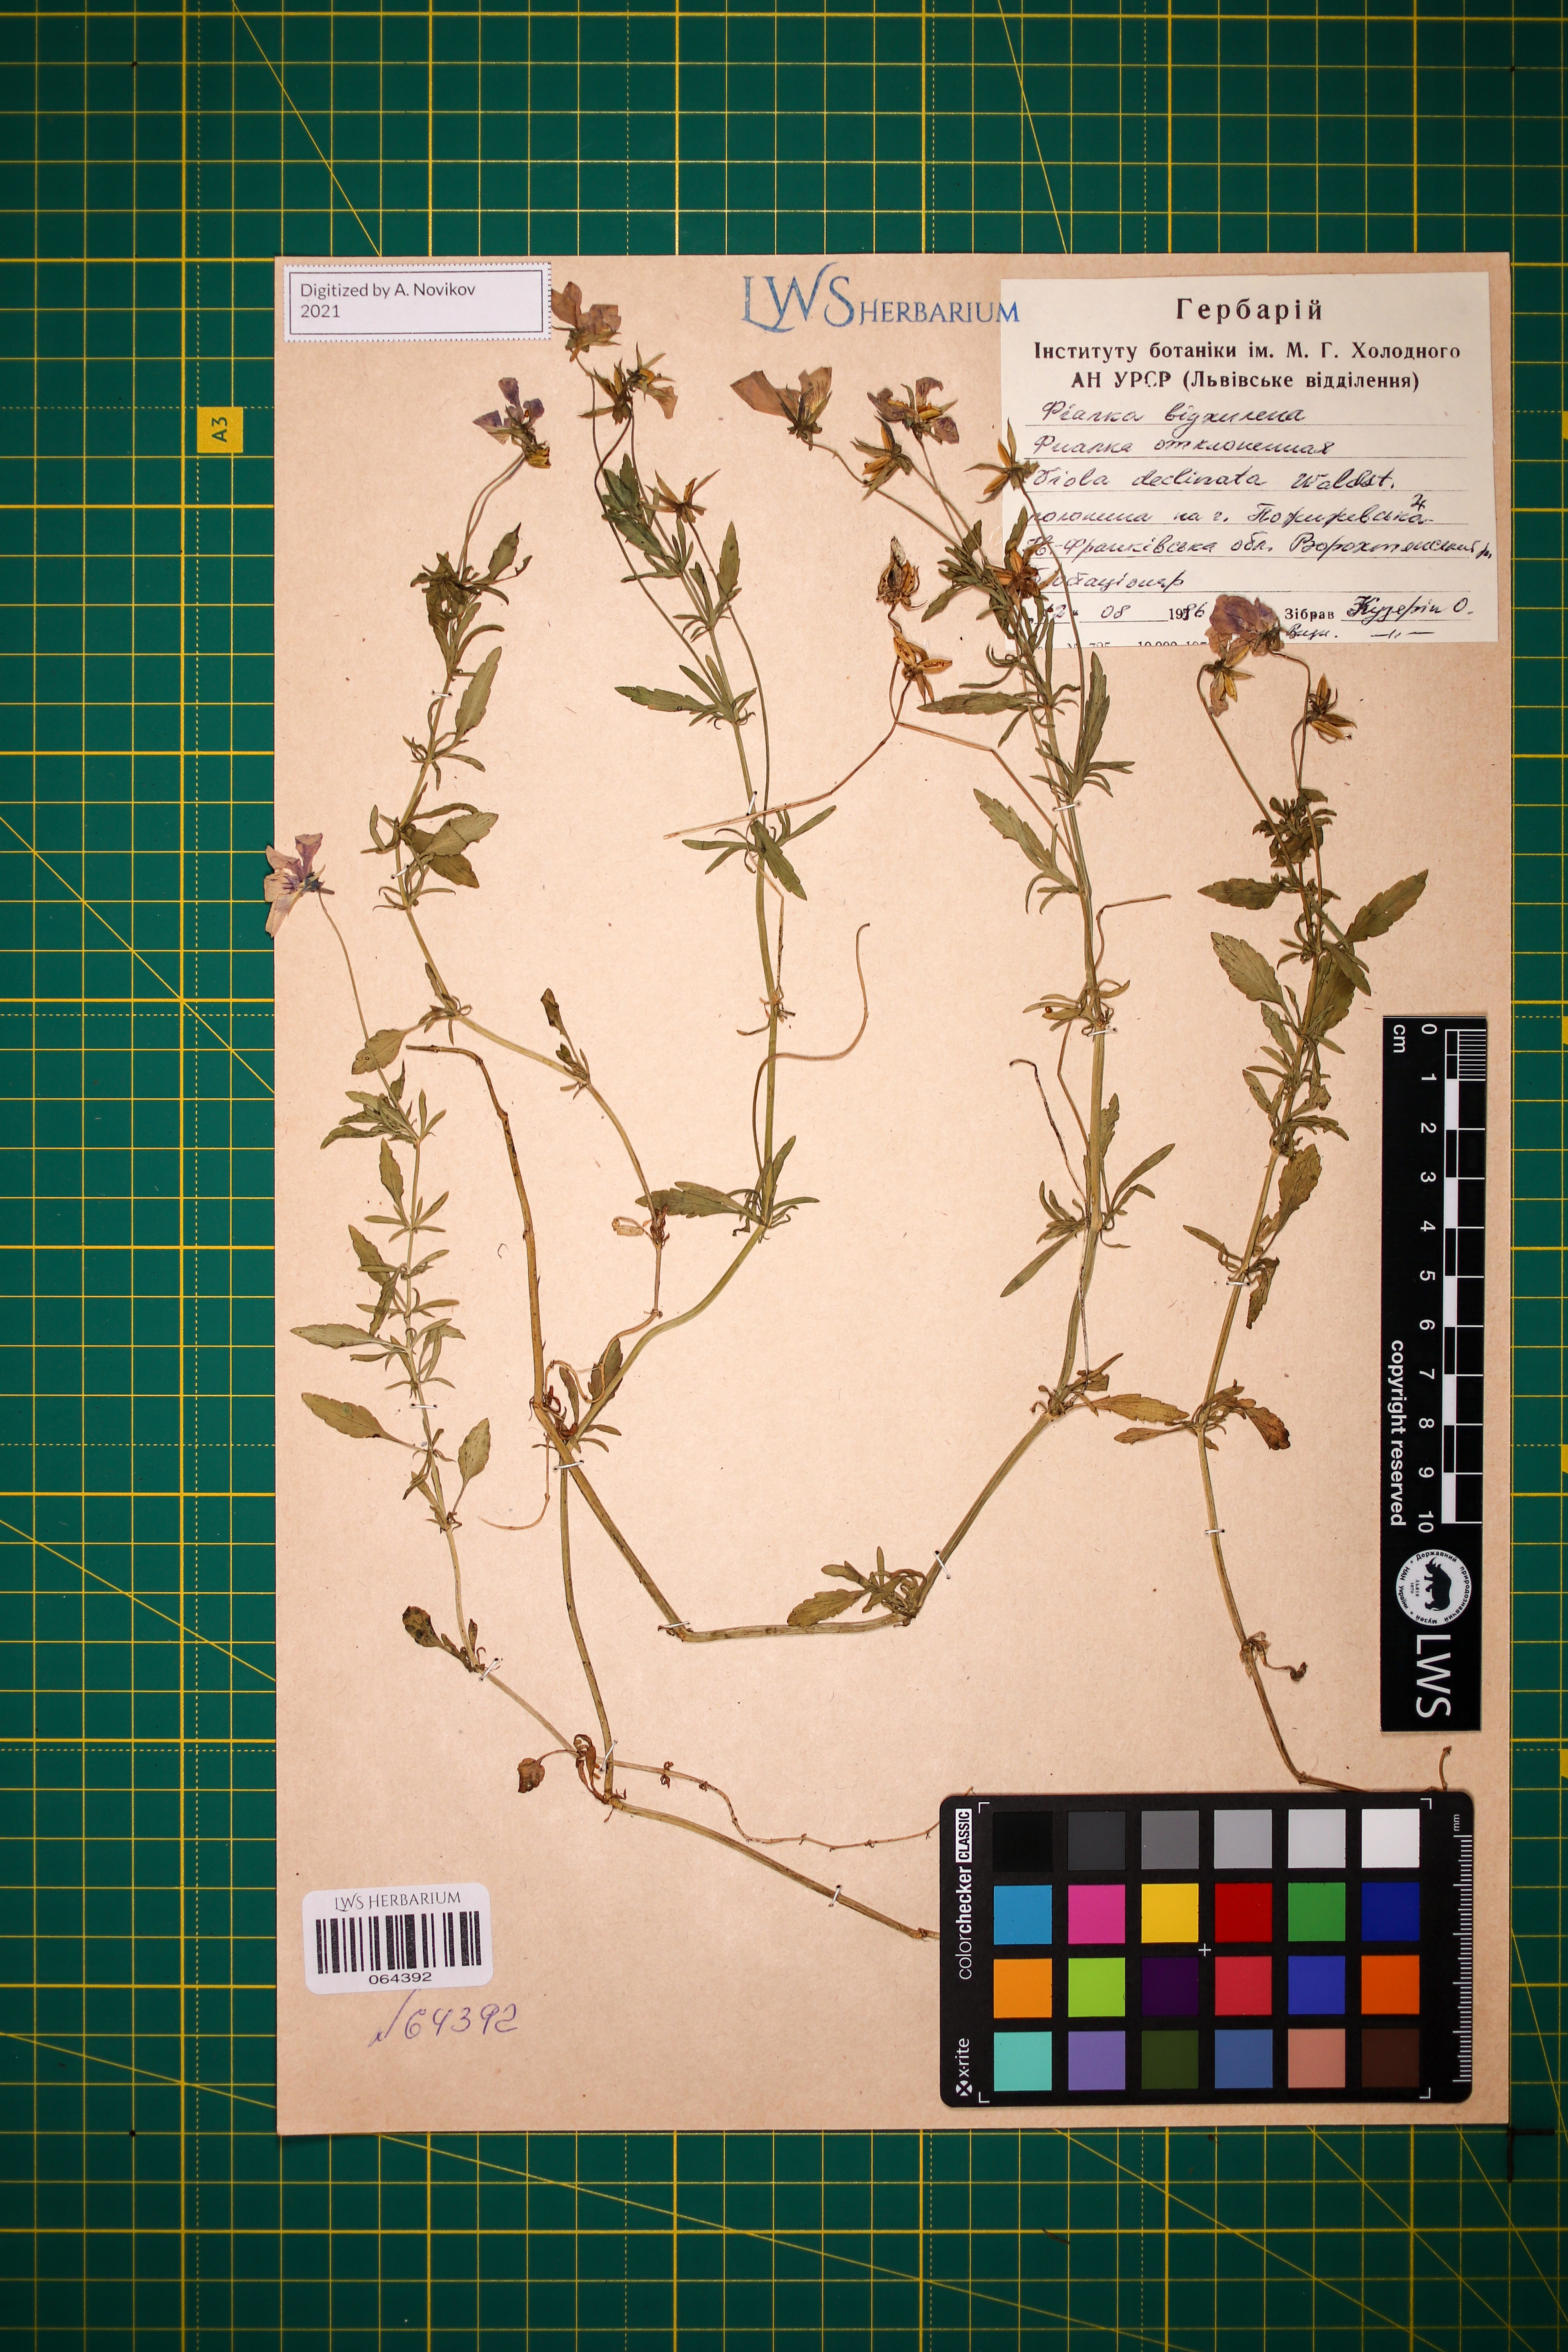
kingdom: Plantae
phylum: Tracheophyta
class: Magnoliopsida
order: Malpighiales
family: Violaceae
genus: Viola
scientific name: Viola declinata
